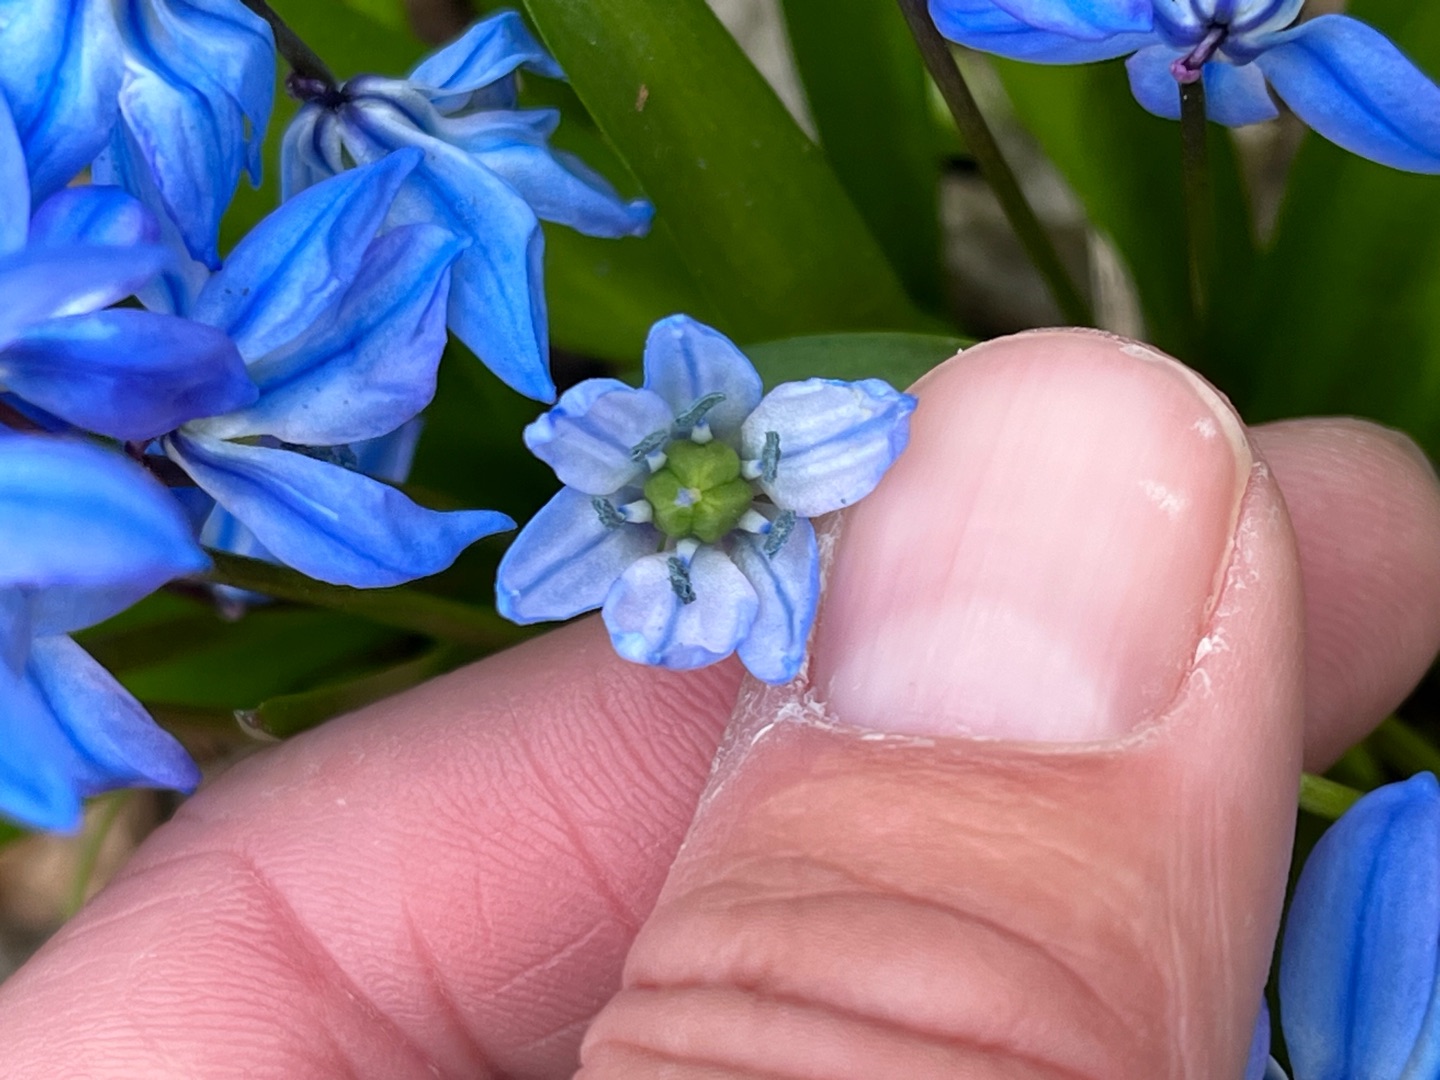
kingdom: Plantae
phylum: Tracheophyta
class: Liliopsida
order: Asparagales
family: Asparagaceae
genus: Scilla
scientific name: Scilla siberica
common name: Russisk skilla
